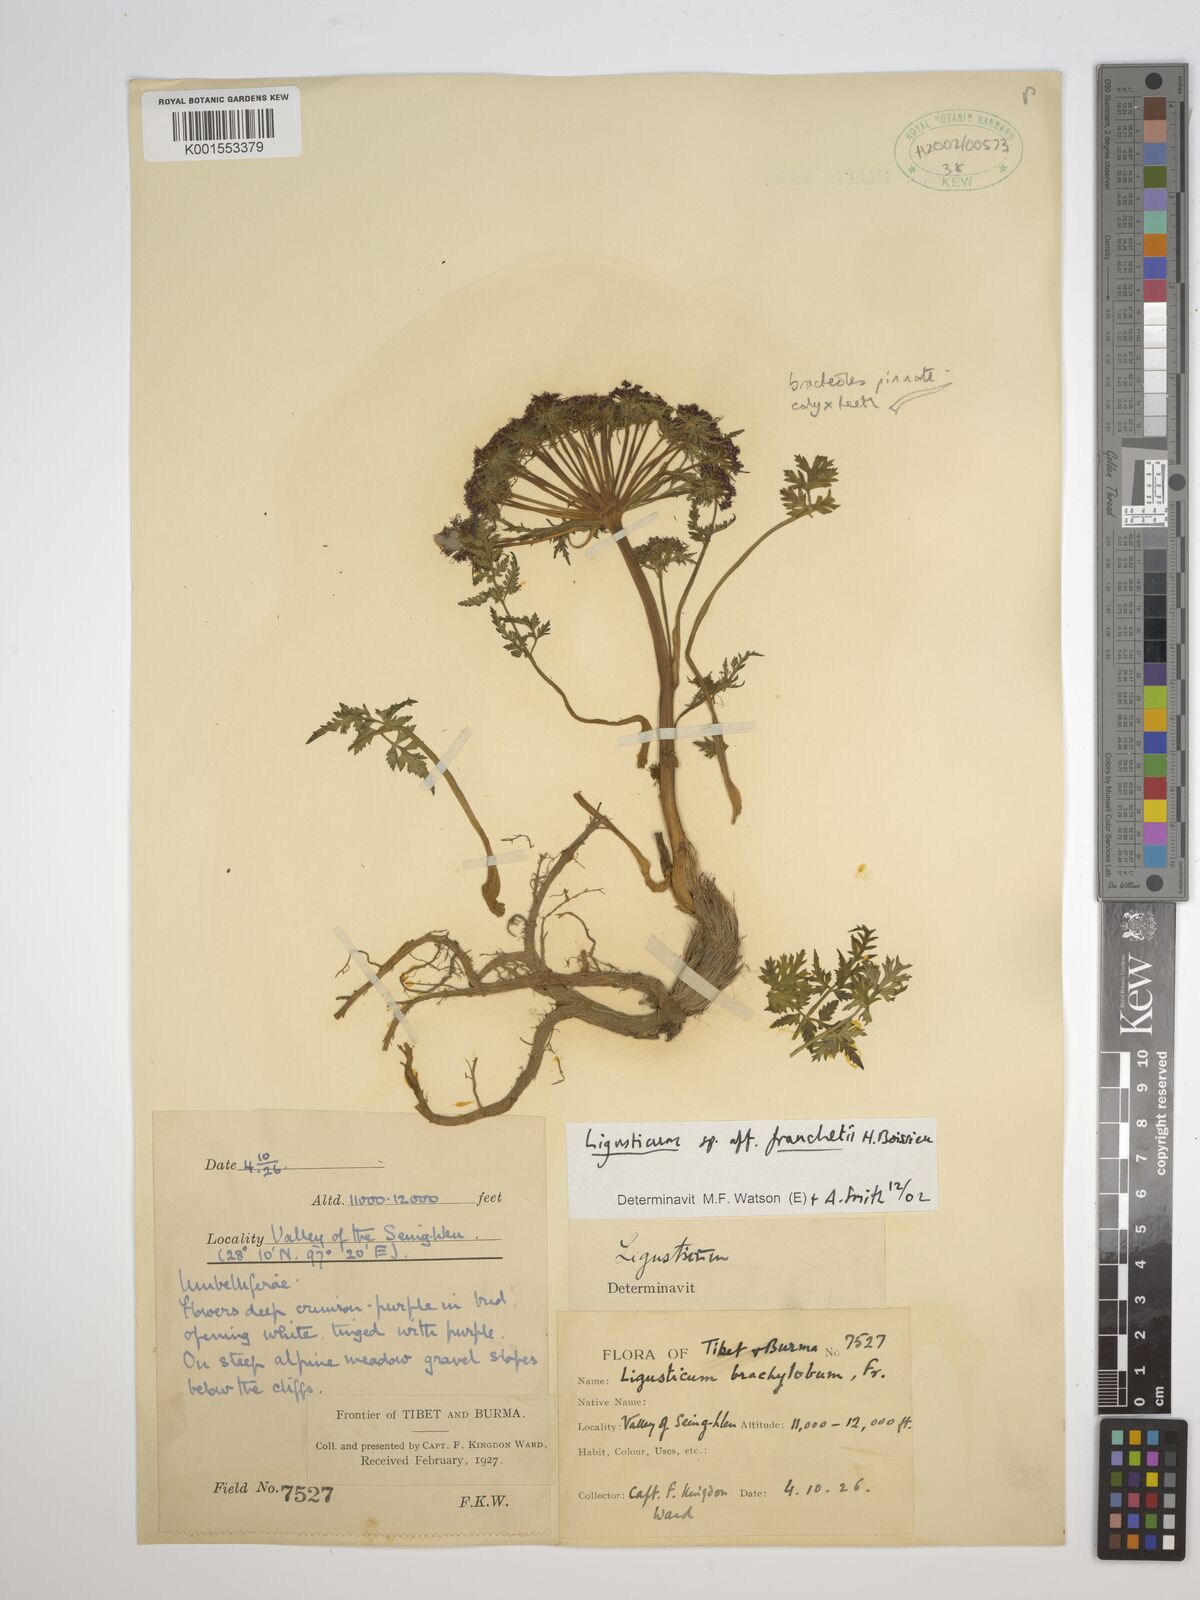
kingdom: Plantae
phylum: Tracheophyta
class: Magnoliopsida
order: Apiales
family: Apiaceae
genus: Ligusticopsis
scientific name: Ligusticopsis daucoides
